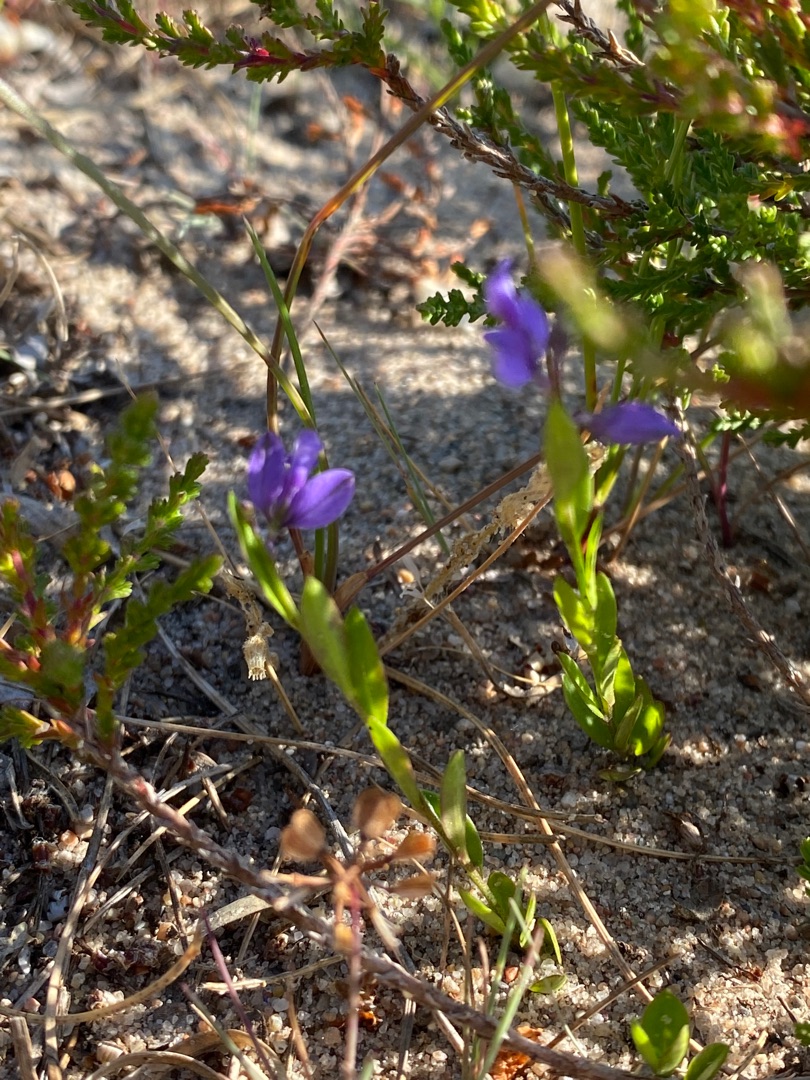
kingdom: Plantae
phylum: Tracheophyta
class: Magnoliopsida
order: Fabales
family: Polygalaceae
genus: Polygala
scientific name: Polygala vulgaris
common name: Almindelig mælkeurt
